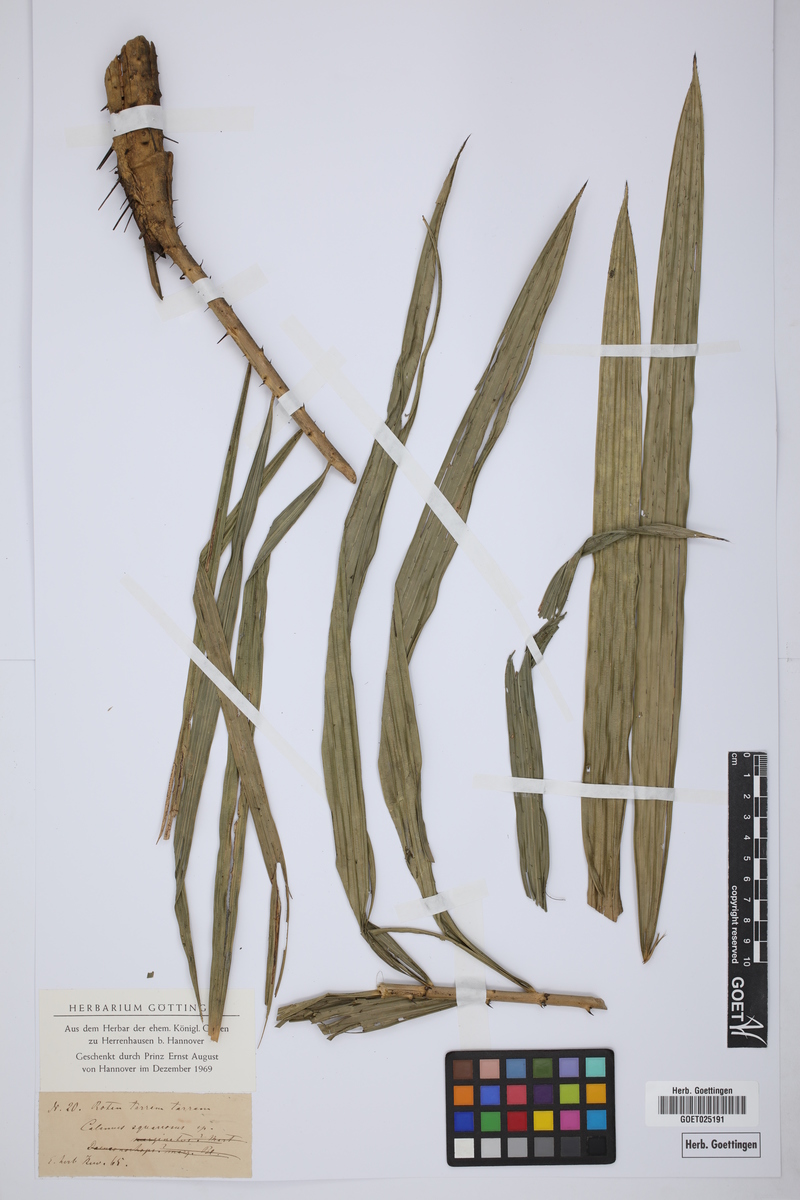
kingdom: Plantae
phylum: Tracheophyta
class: Liliopsida
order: Arecales
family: Arecaceae
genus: Calamus
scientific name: Calamus
